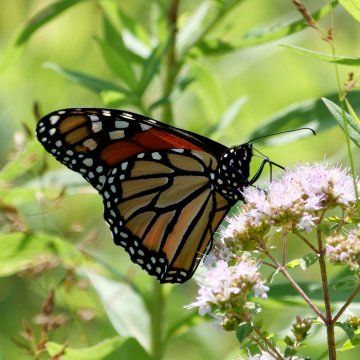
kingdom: Animalia
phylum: Arthropoda
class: Insecta
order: Lepidoptera
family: Nymphalidae
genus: Danaus
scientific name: Danaus plexippus
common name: Monarch
